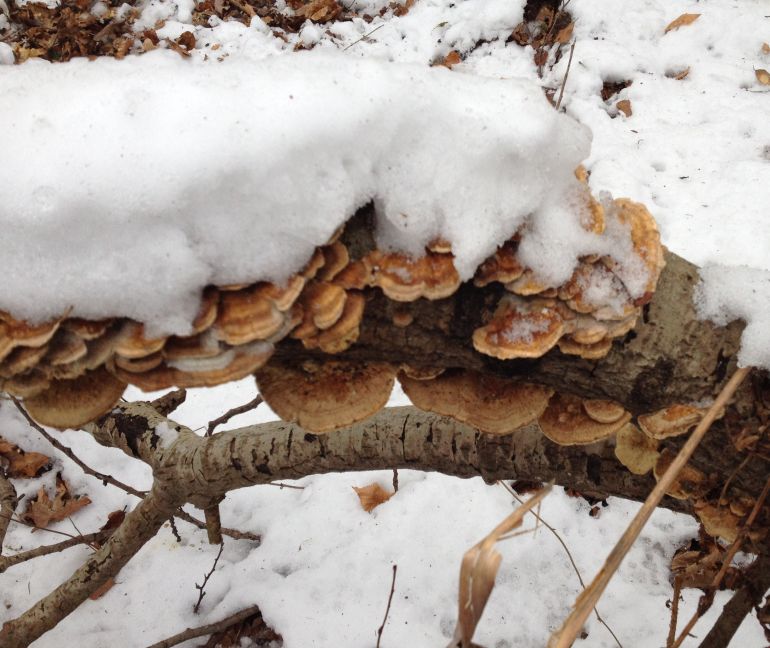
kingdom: Fungi
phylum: Basidiomycota
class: Agaricomycetes
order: Polyporales
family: Polyporaceae
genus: Trametes
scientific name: Trametes ochracea
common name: bæltet læderporesvamp
